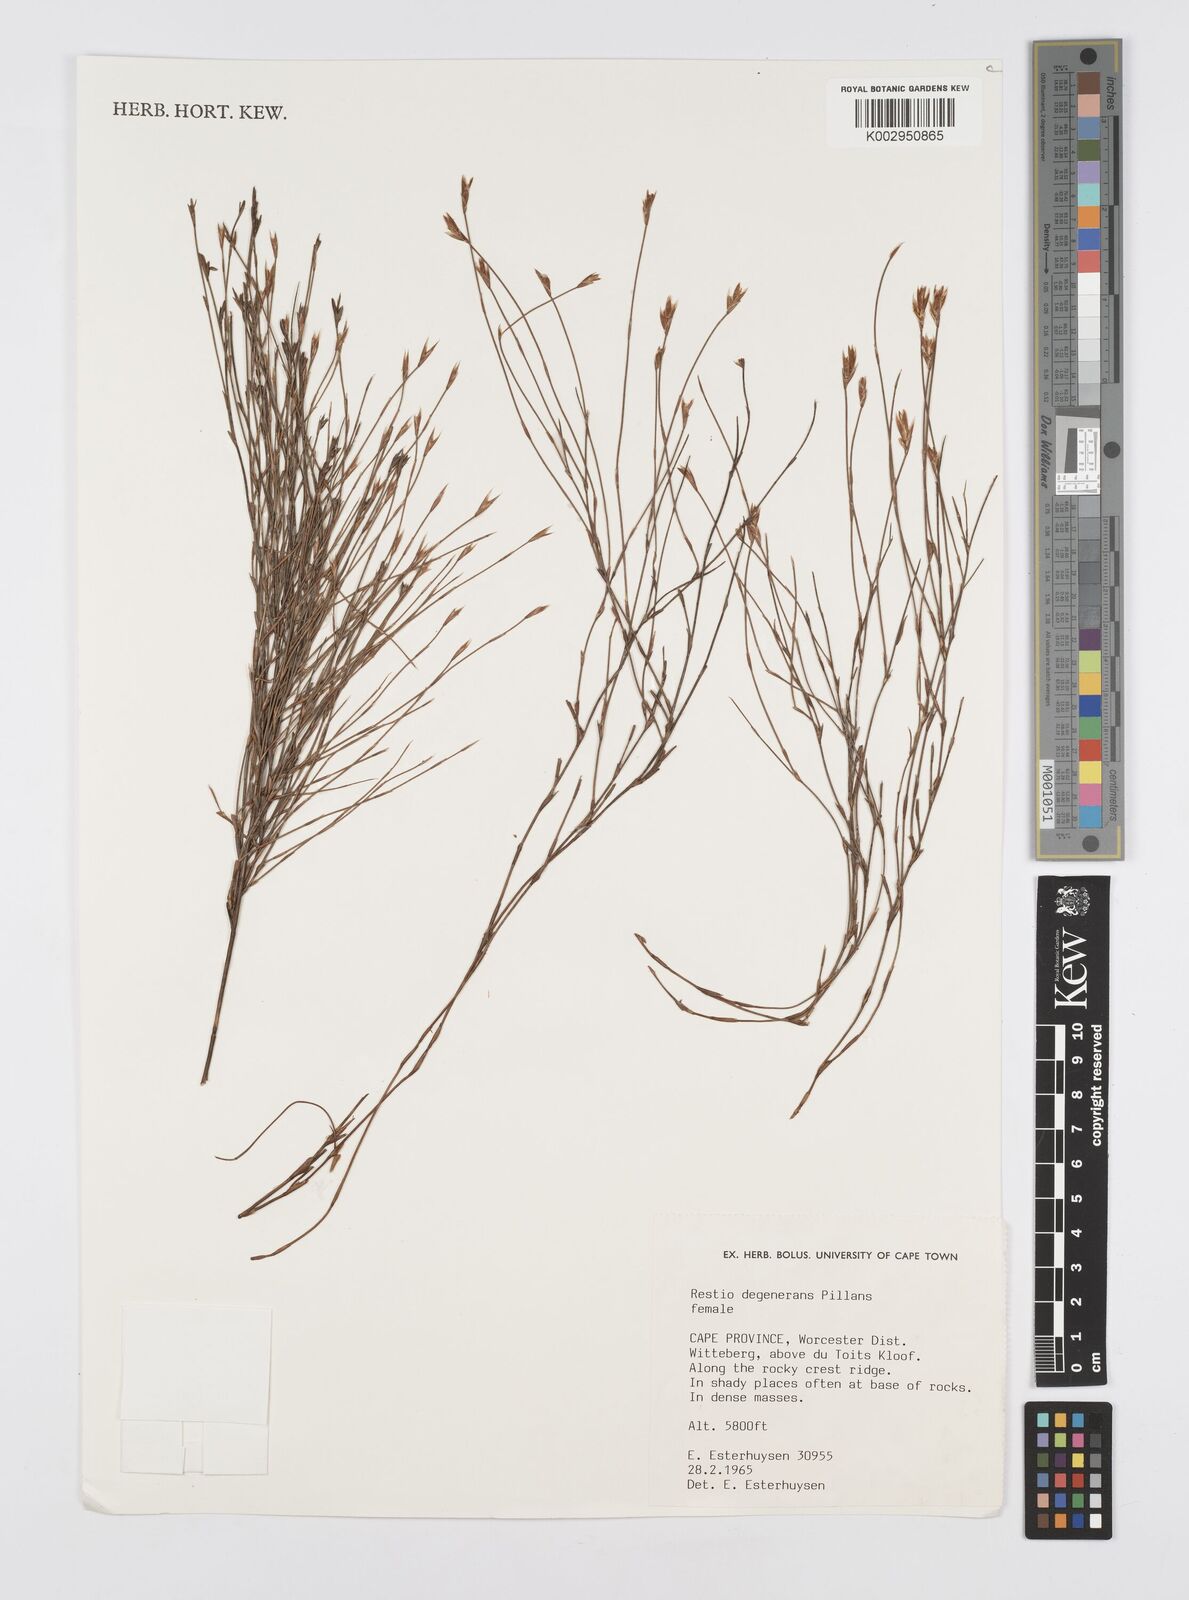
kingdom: Plantae
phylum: Tracheophyta
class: Liliopsida
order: Poales
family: Restionaceae
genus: Restio
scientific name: Restio degenerans
